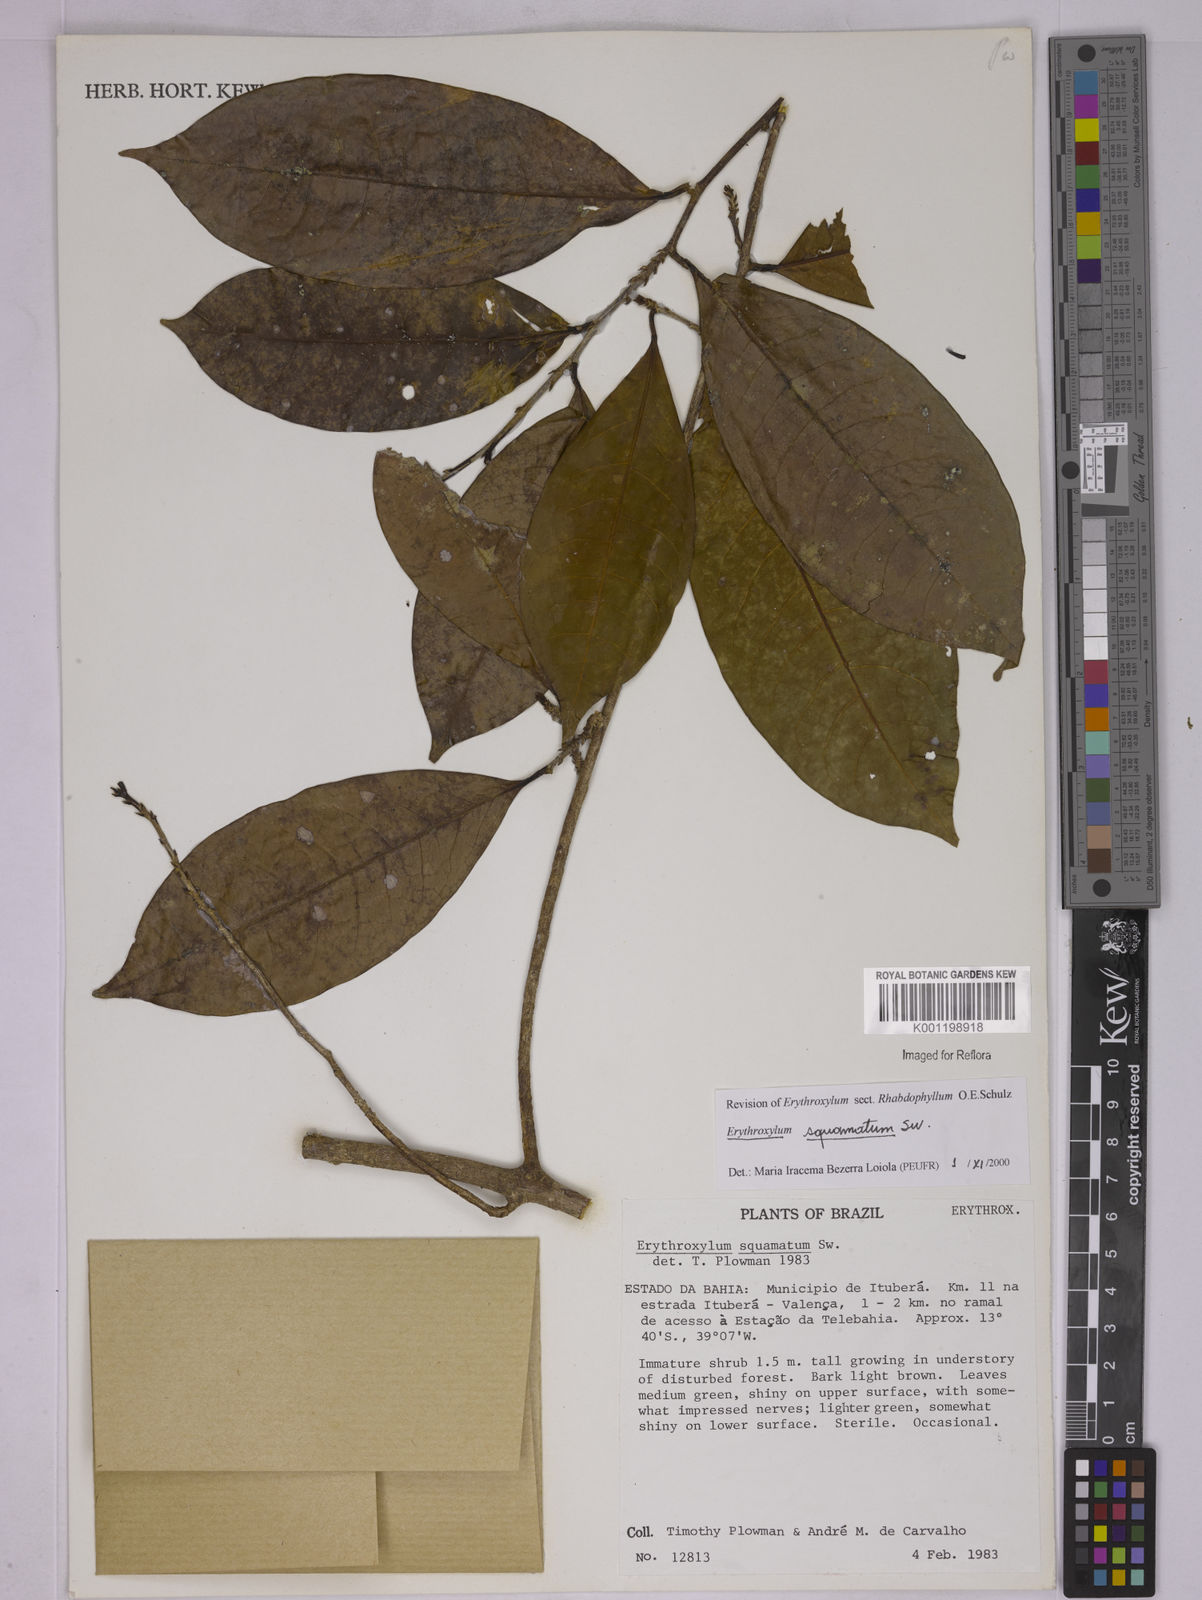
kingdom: Plantae
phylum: Tracheophyta
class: Magnoliopsida
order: Malpighiales
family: Erythroxylaceae
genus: Erythroxylum
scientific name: Erythroxylum squamatum
